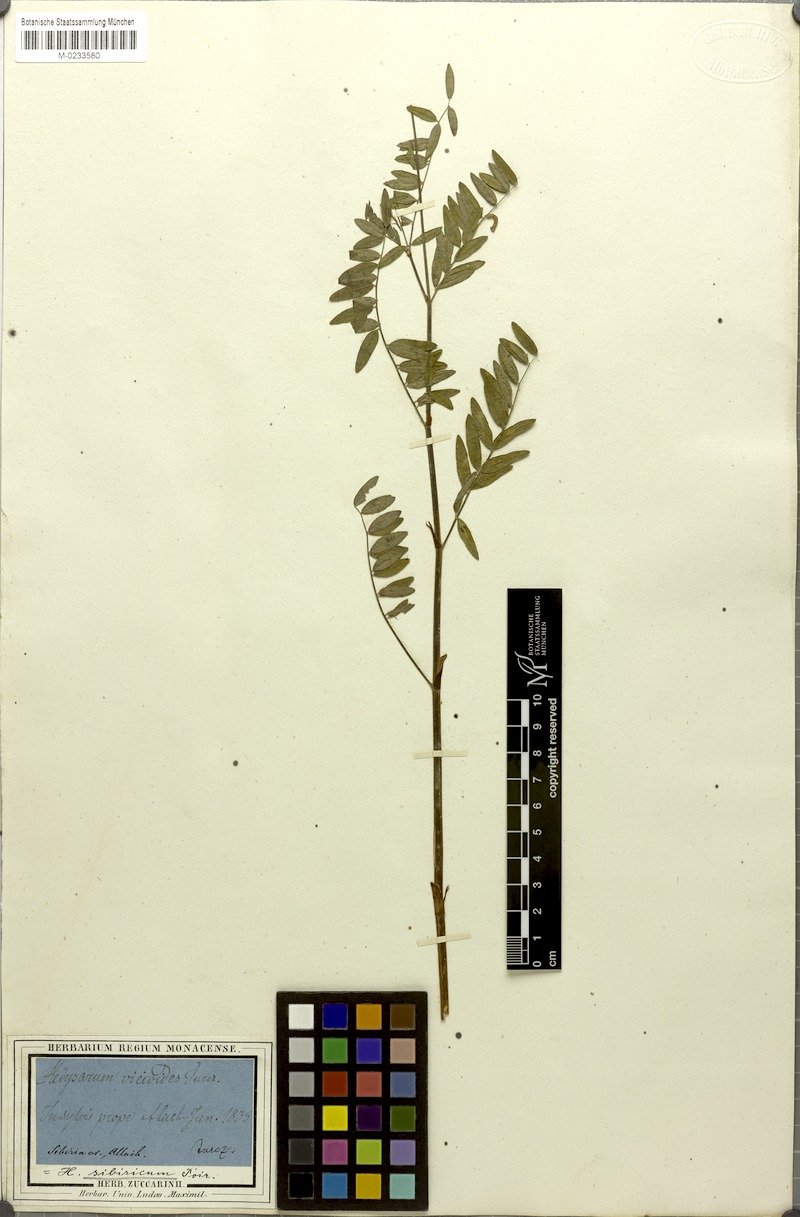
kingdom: Plantae
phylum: Tracheophyta
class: Magnoliopsida
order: Fabales
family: Fabaceae
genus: Hedysarum
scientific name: Hedysarum vicioides
